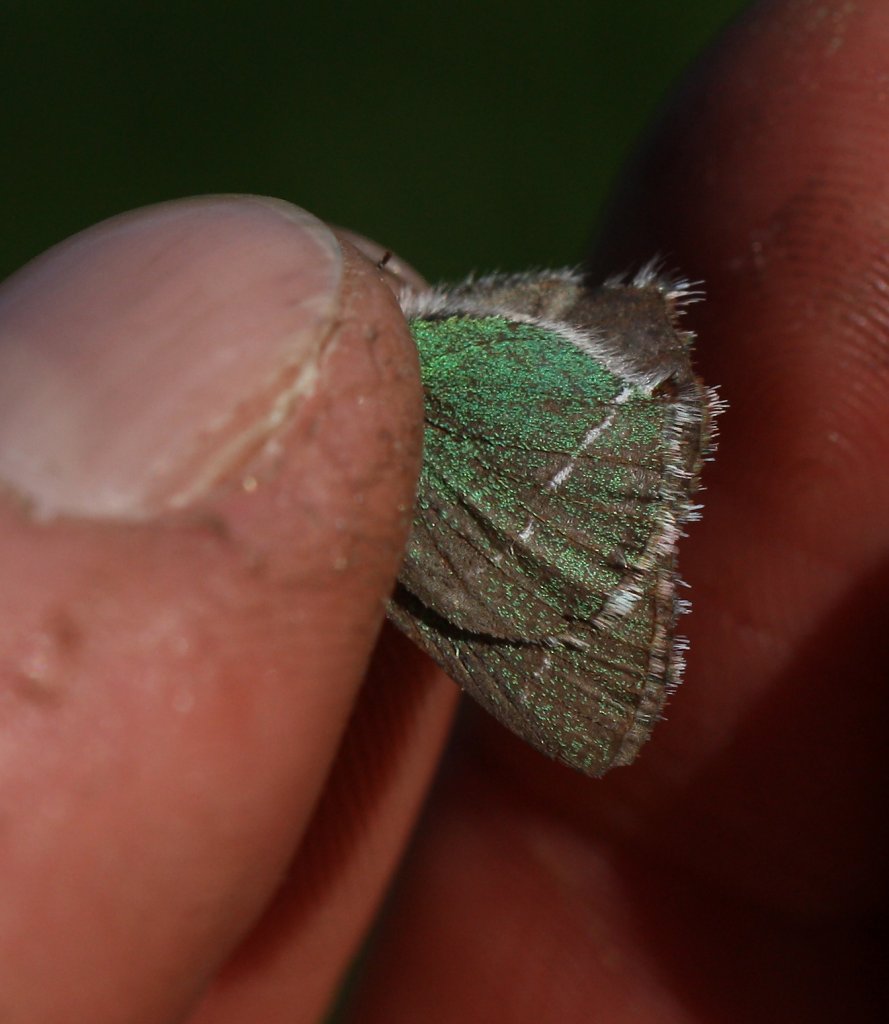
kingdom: Animalia
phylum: Arthropoda
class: Insecta
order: Lepidoptera
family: Lycaenidae
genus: Thecla
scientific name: Thecla sheridanii
